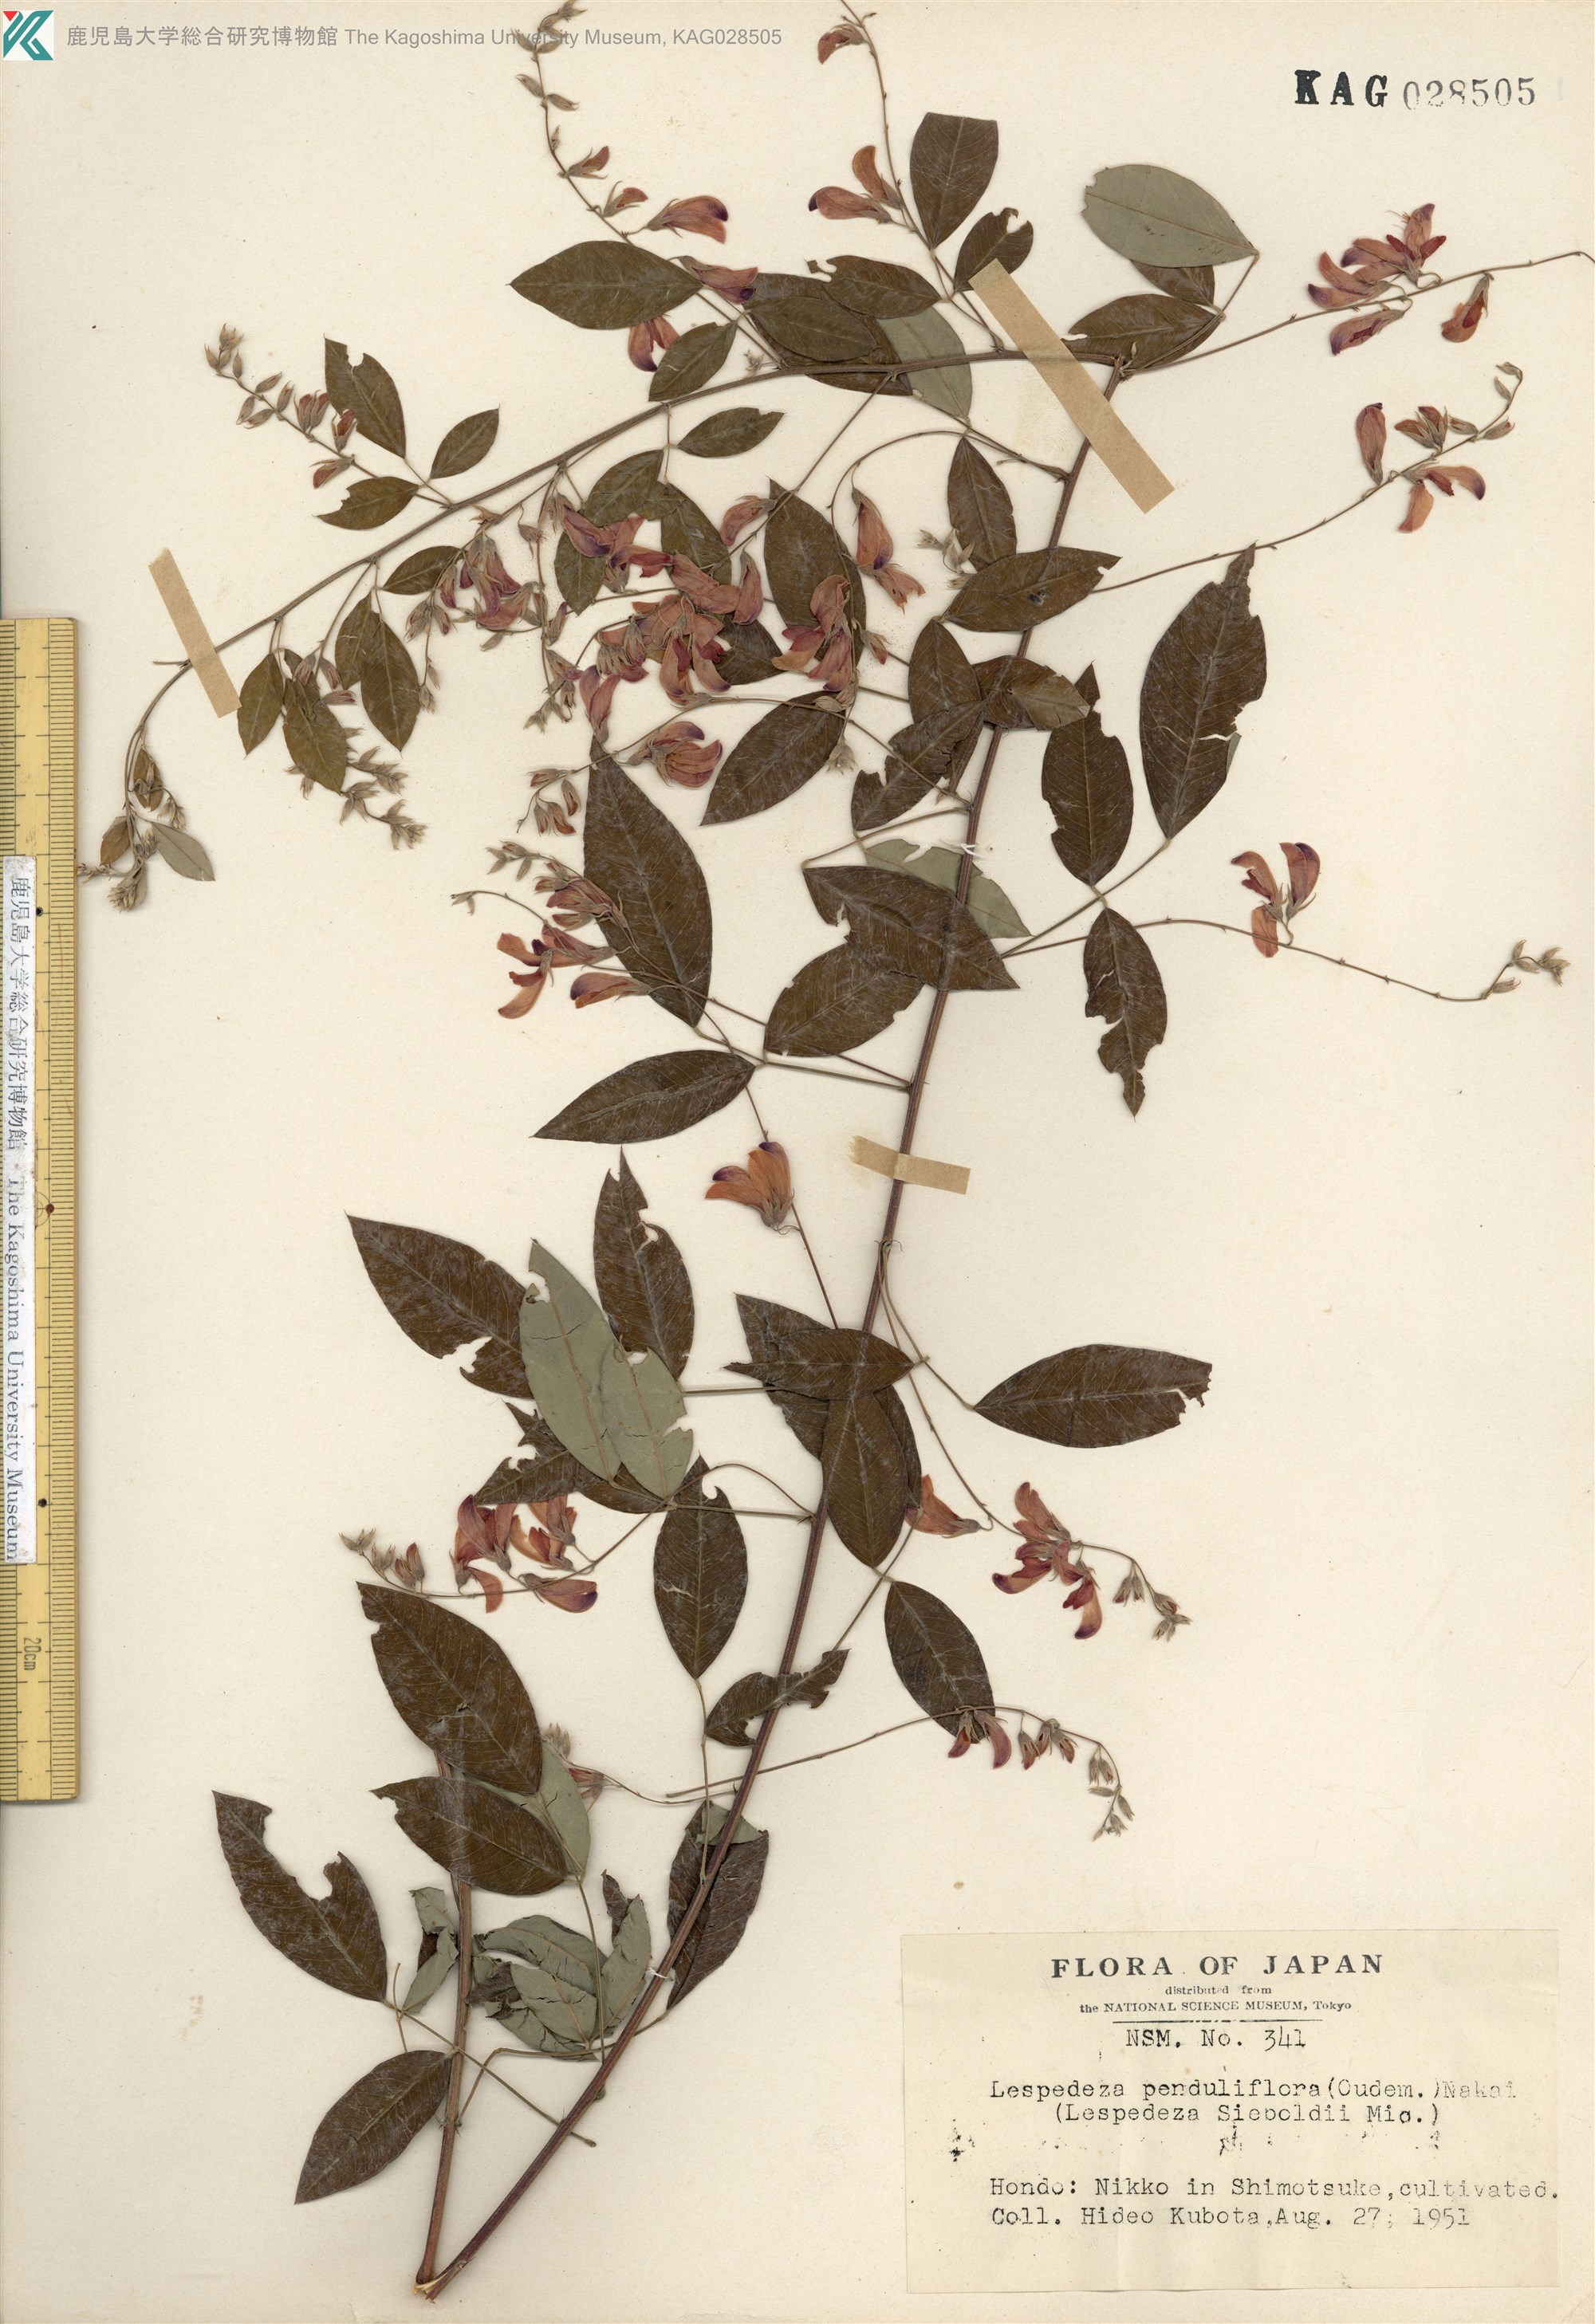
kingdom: Plantae
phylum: Tracheophyta
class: Magnoliopsida
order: Fabales
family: Fabaceae
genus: Lespedeza
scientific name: Lespedeza thunbergii
